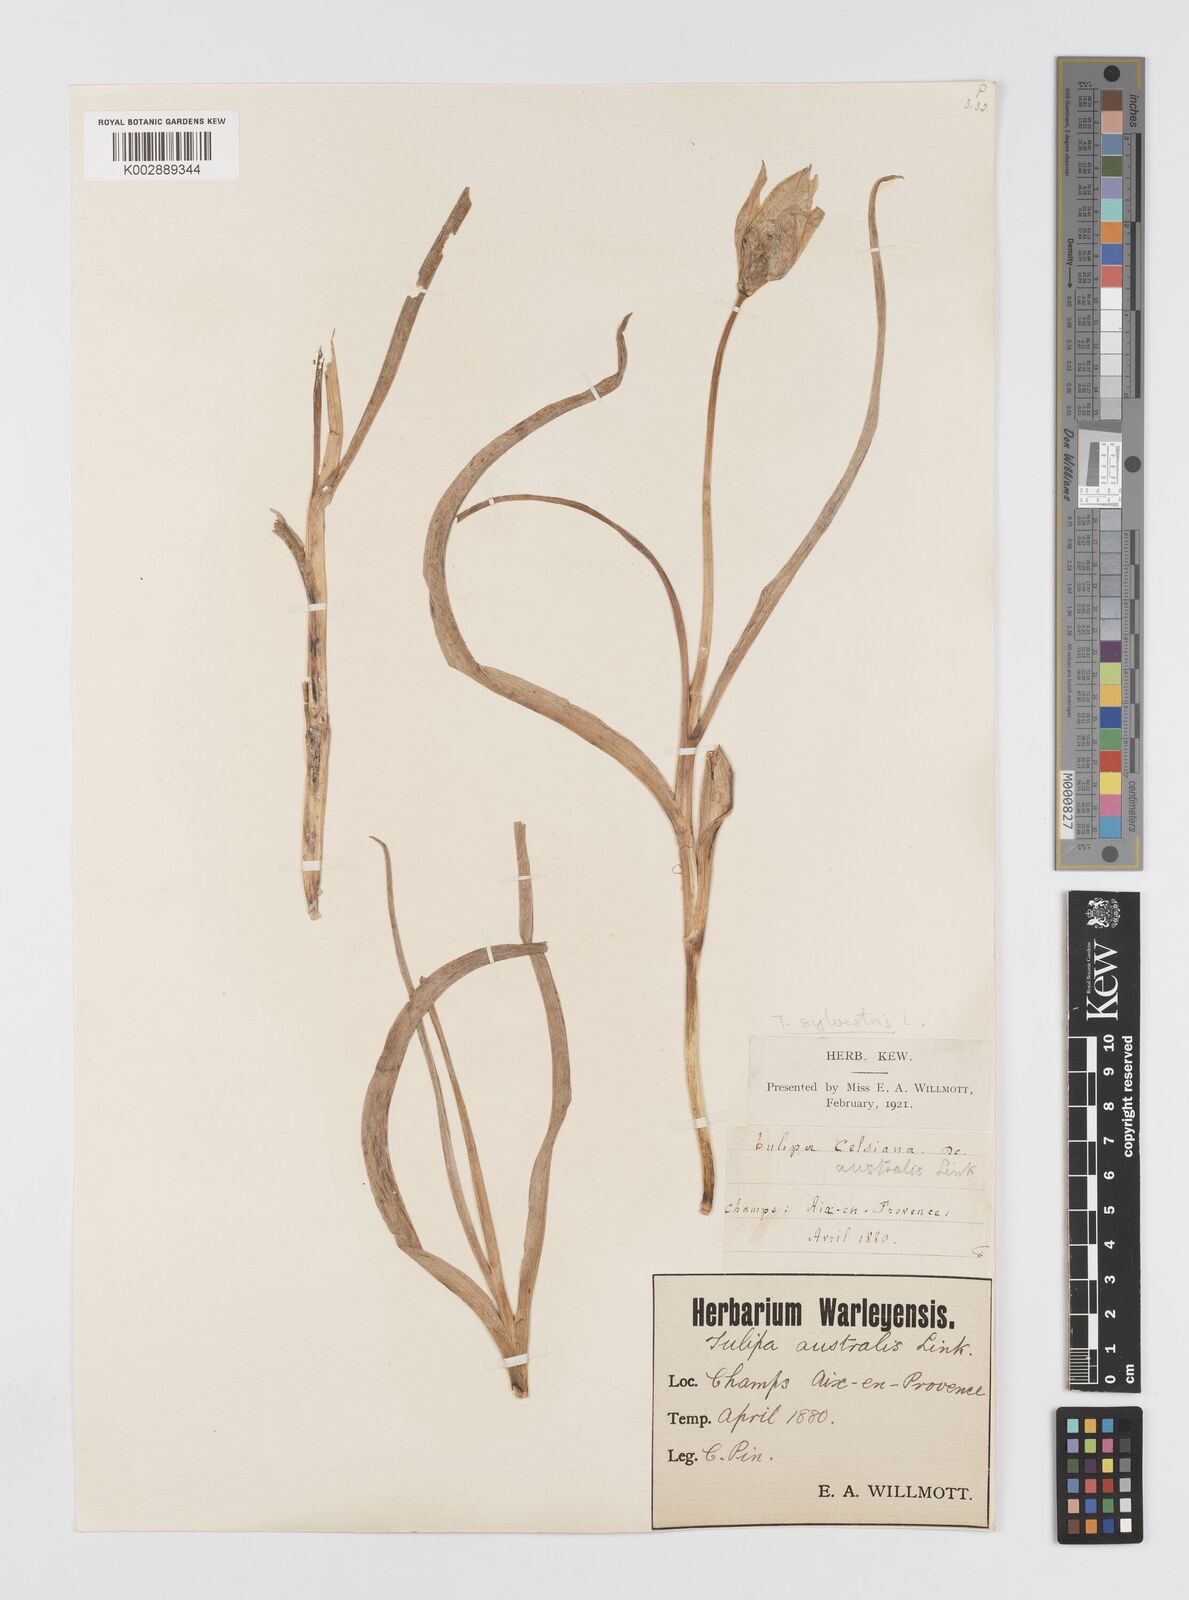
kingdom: Plantae
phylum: Tracheophyta
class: Liliopsida
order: Liliales
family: Liliaceae
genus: Tulipa
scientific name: Tulipa sylvestris
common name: Wild tulip
